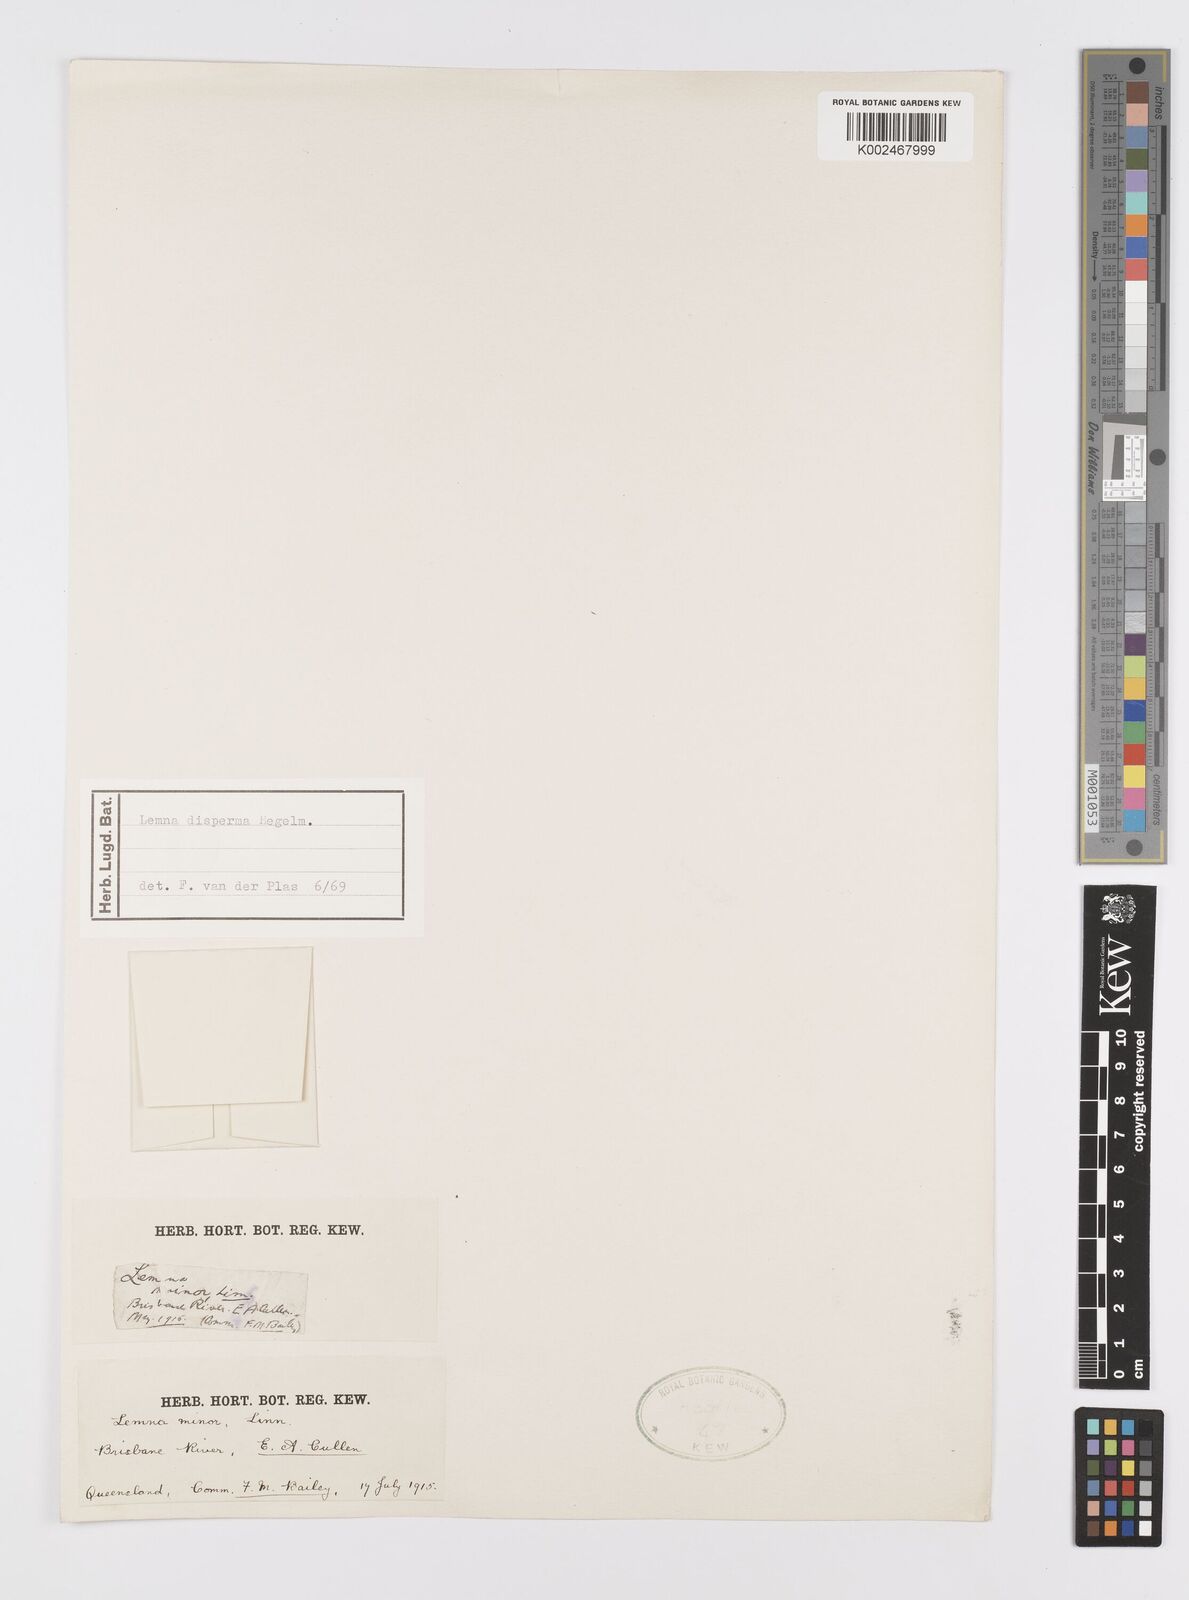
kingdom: Plantae
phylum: Tracheophyta
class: Liliopsida
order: Alismatales
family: Araceae
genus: Lemna
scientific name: Lemna minor
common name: Common duckweed
